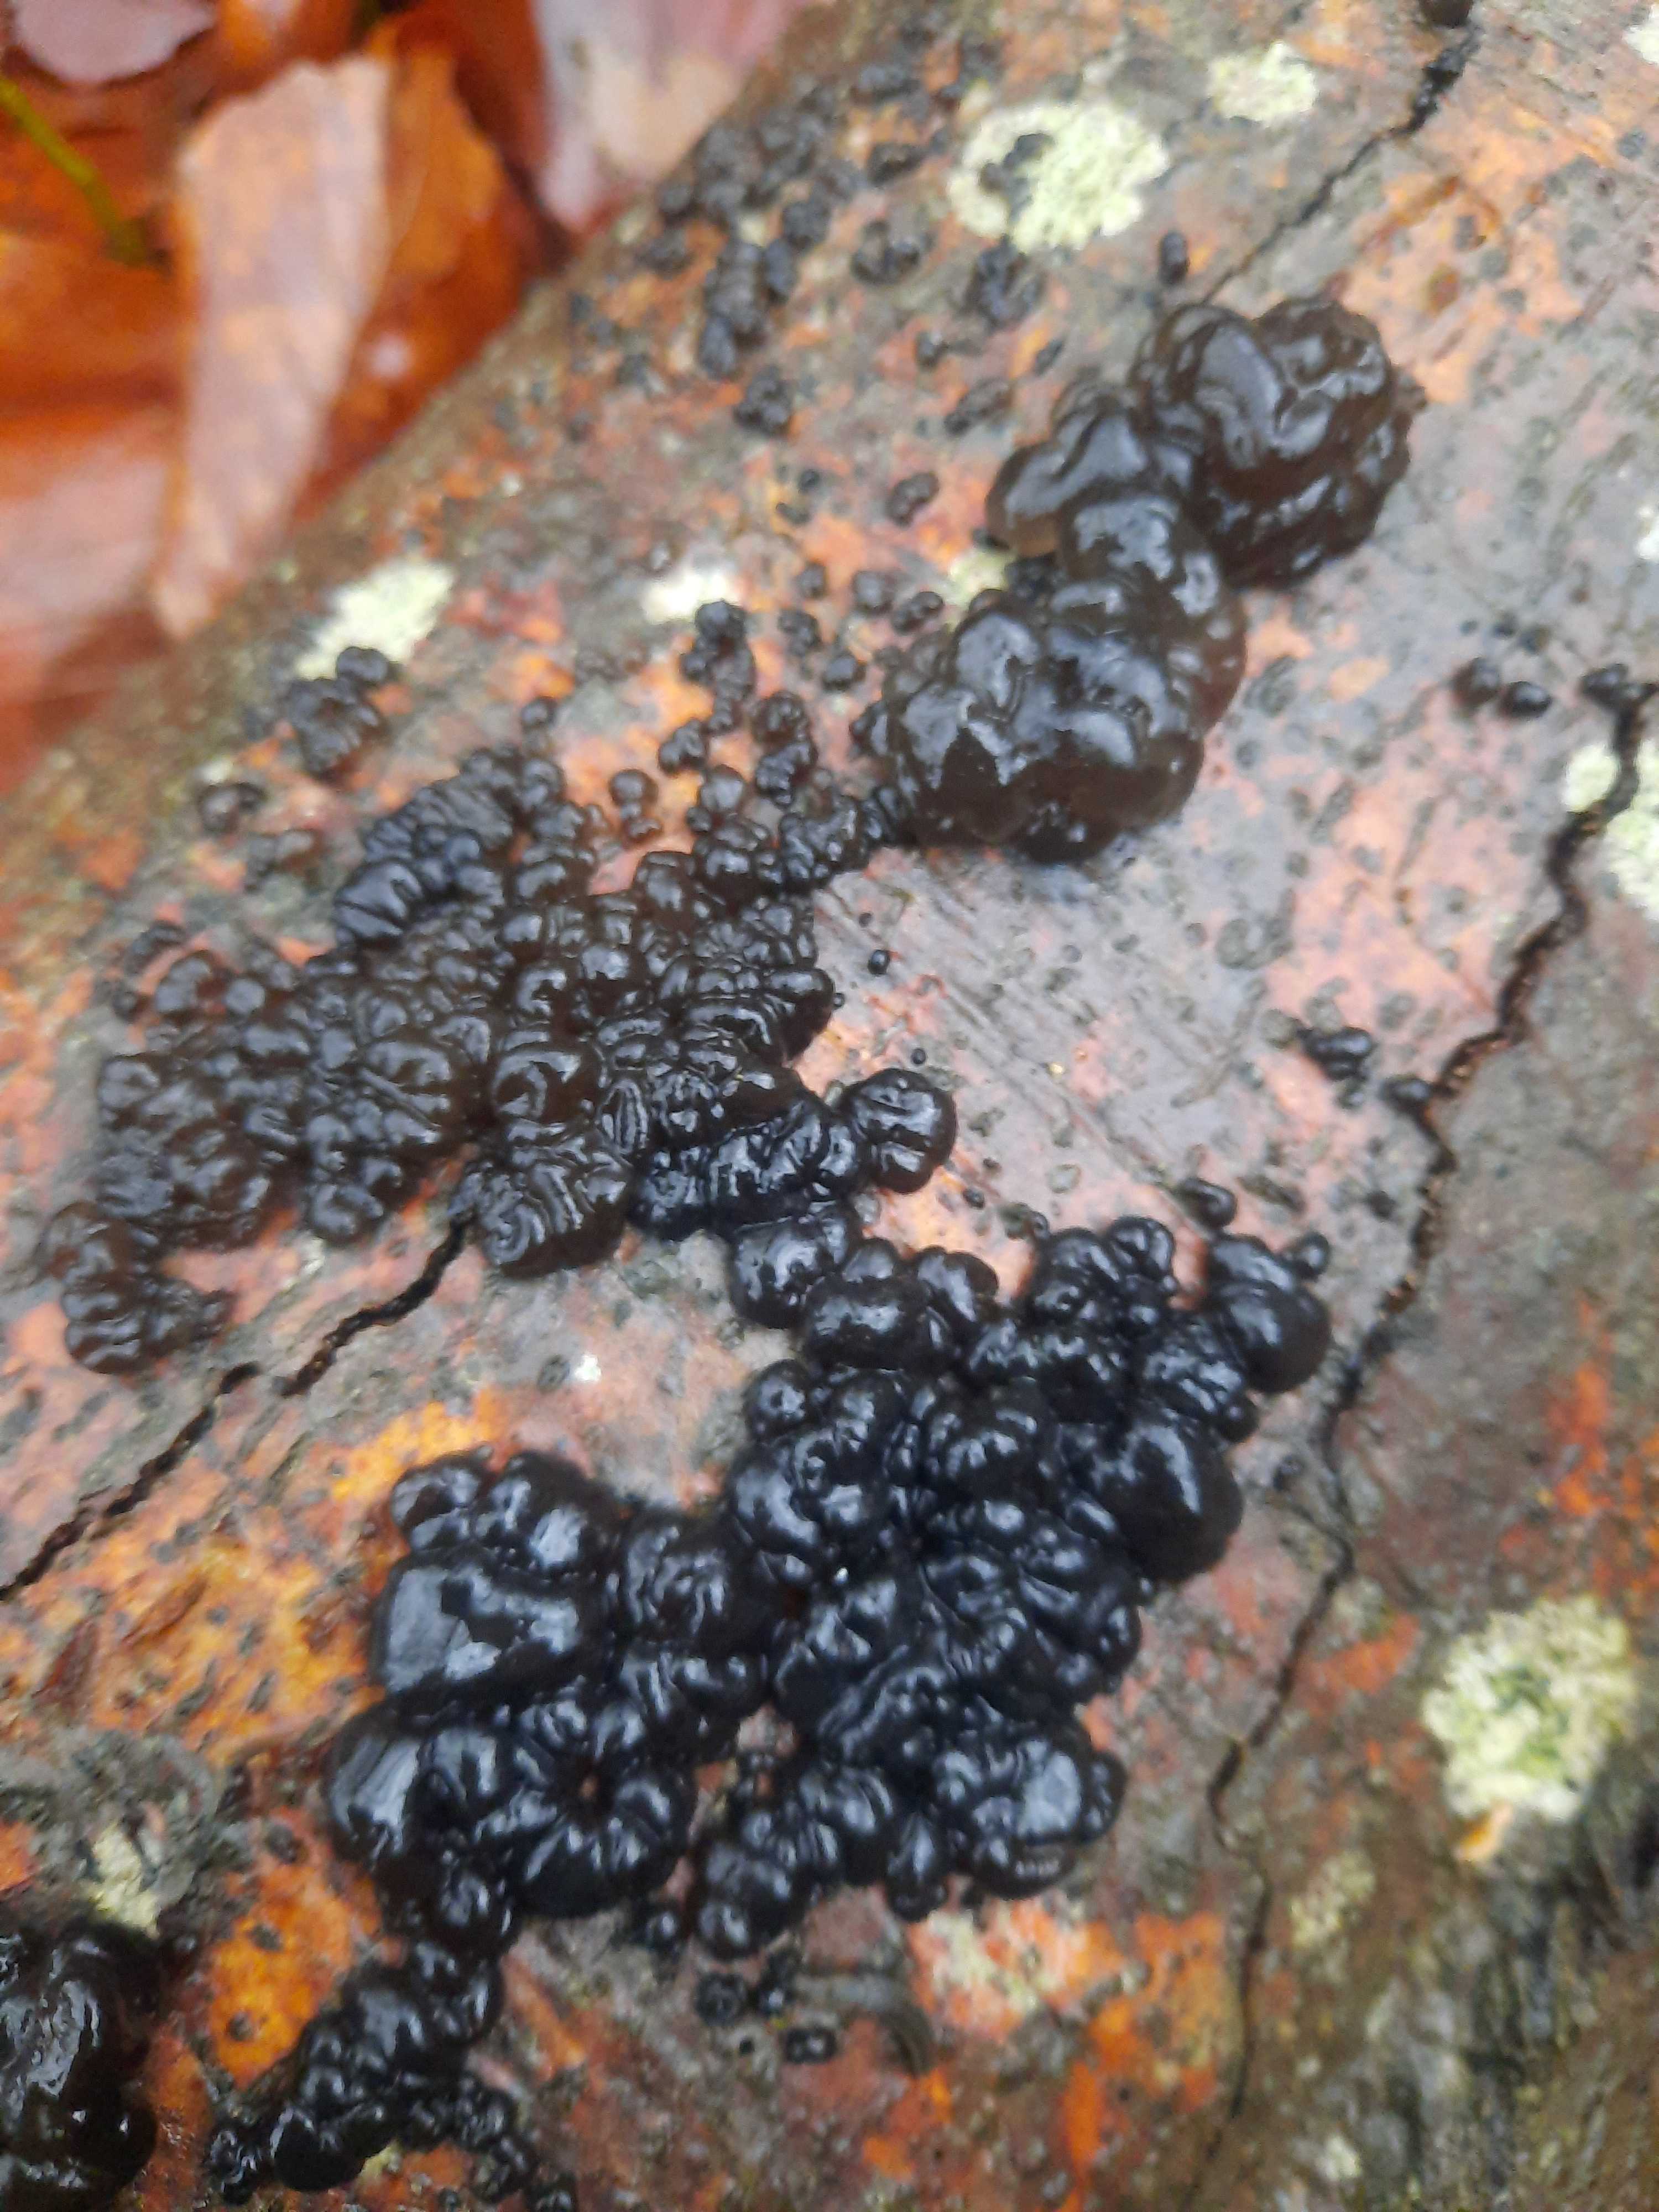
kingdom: Fungi
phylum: Basidiomycota
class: Agaricomycetes
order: Auriculariales
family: Auriculariaceae
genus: Exidia
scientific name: Exidia nigricans
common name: almindelig bævretop
